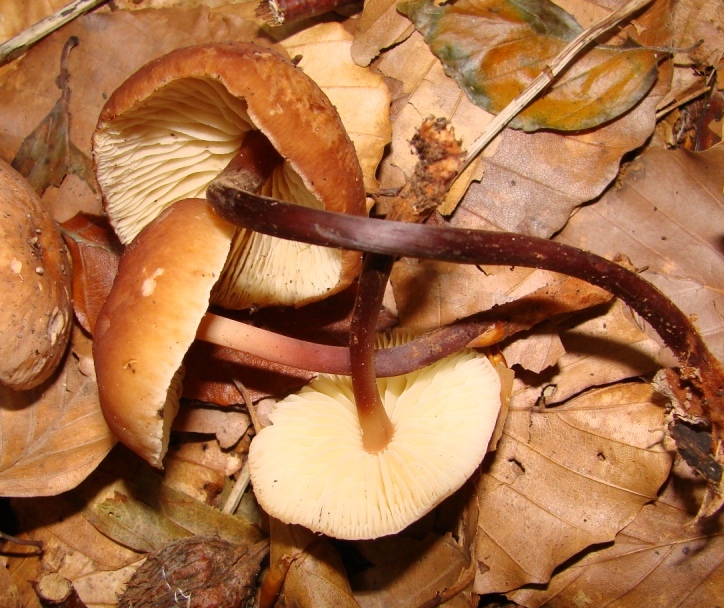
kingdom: Fungi
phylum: Basidiomycota
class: Agaricomycetes
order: Agaricales
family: Omphalotaceae
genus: Gymnopus
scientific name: Gymnopus erythropus
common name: rødstokket fladhat
